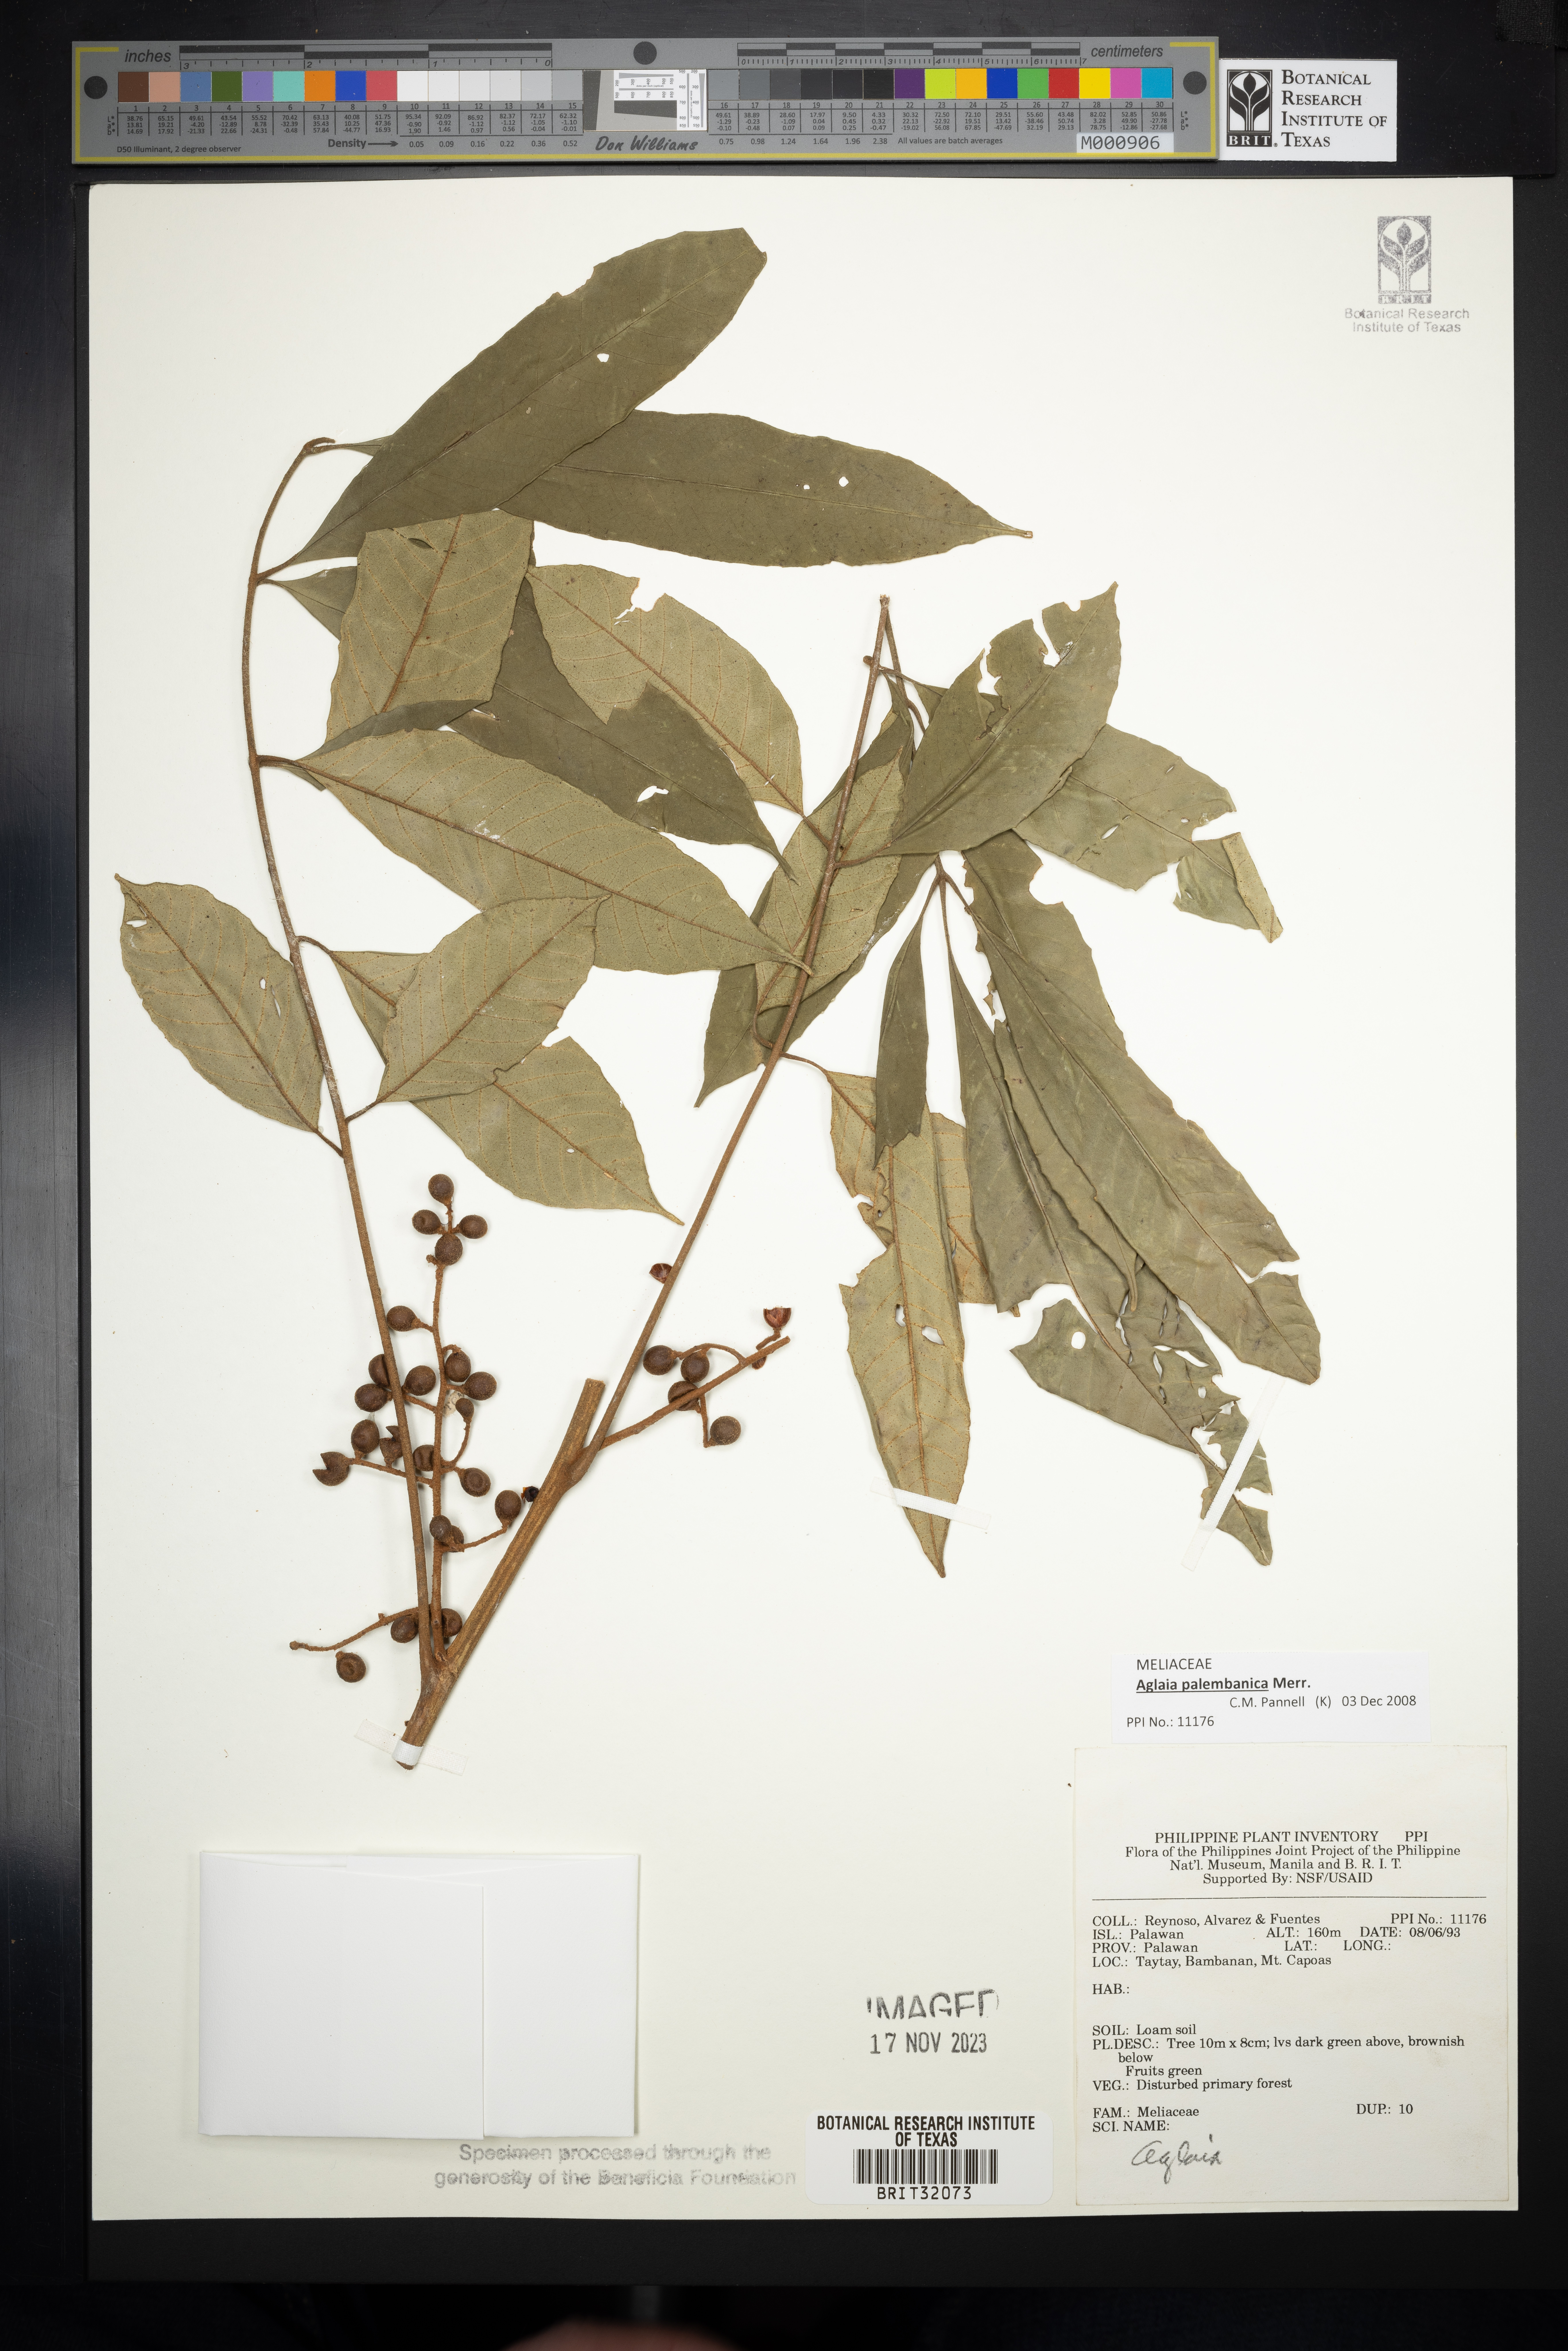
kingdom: Plantae
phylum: Tracheophyta
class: Magnoliopsida
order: Sapindales
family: Meliaceae
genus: Aglaia
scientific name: Aglaia
